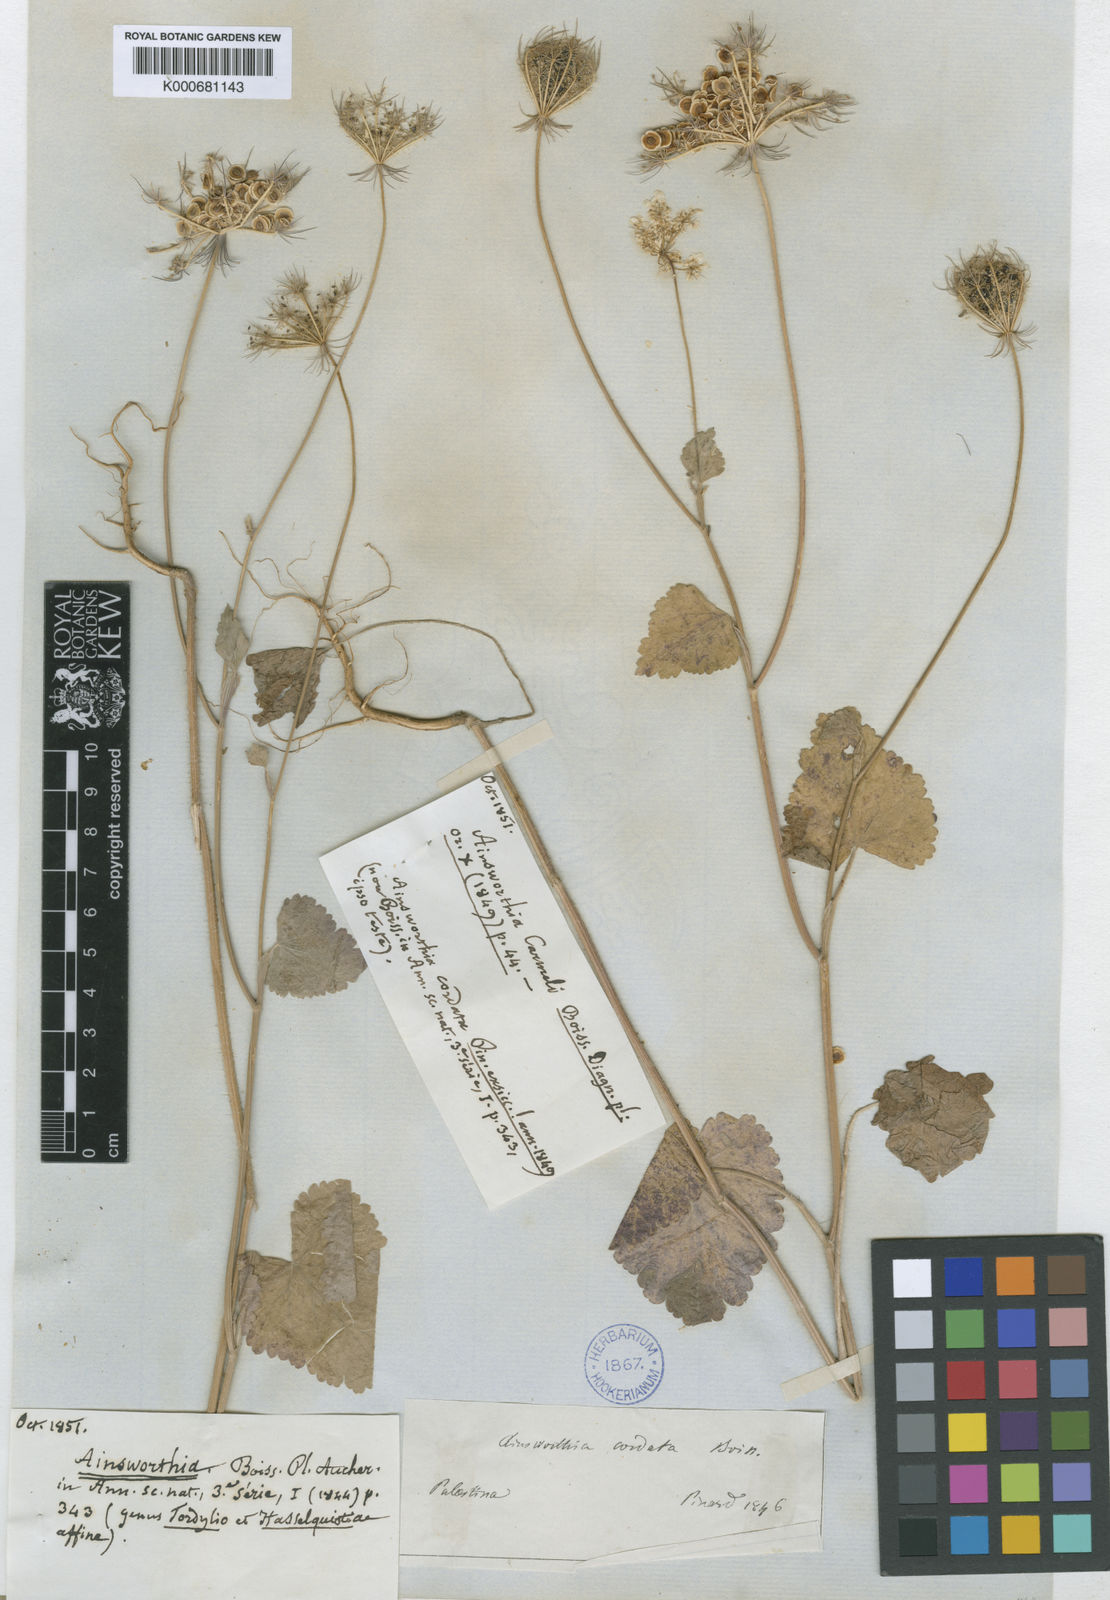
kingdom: Plantae
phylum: Tracheophyta
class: Magnoliopsida
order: Apiales
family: Apiaceae
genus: Synelcosciadium
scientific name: Synelcosciadium carmeli
